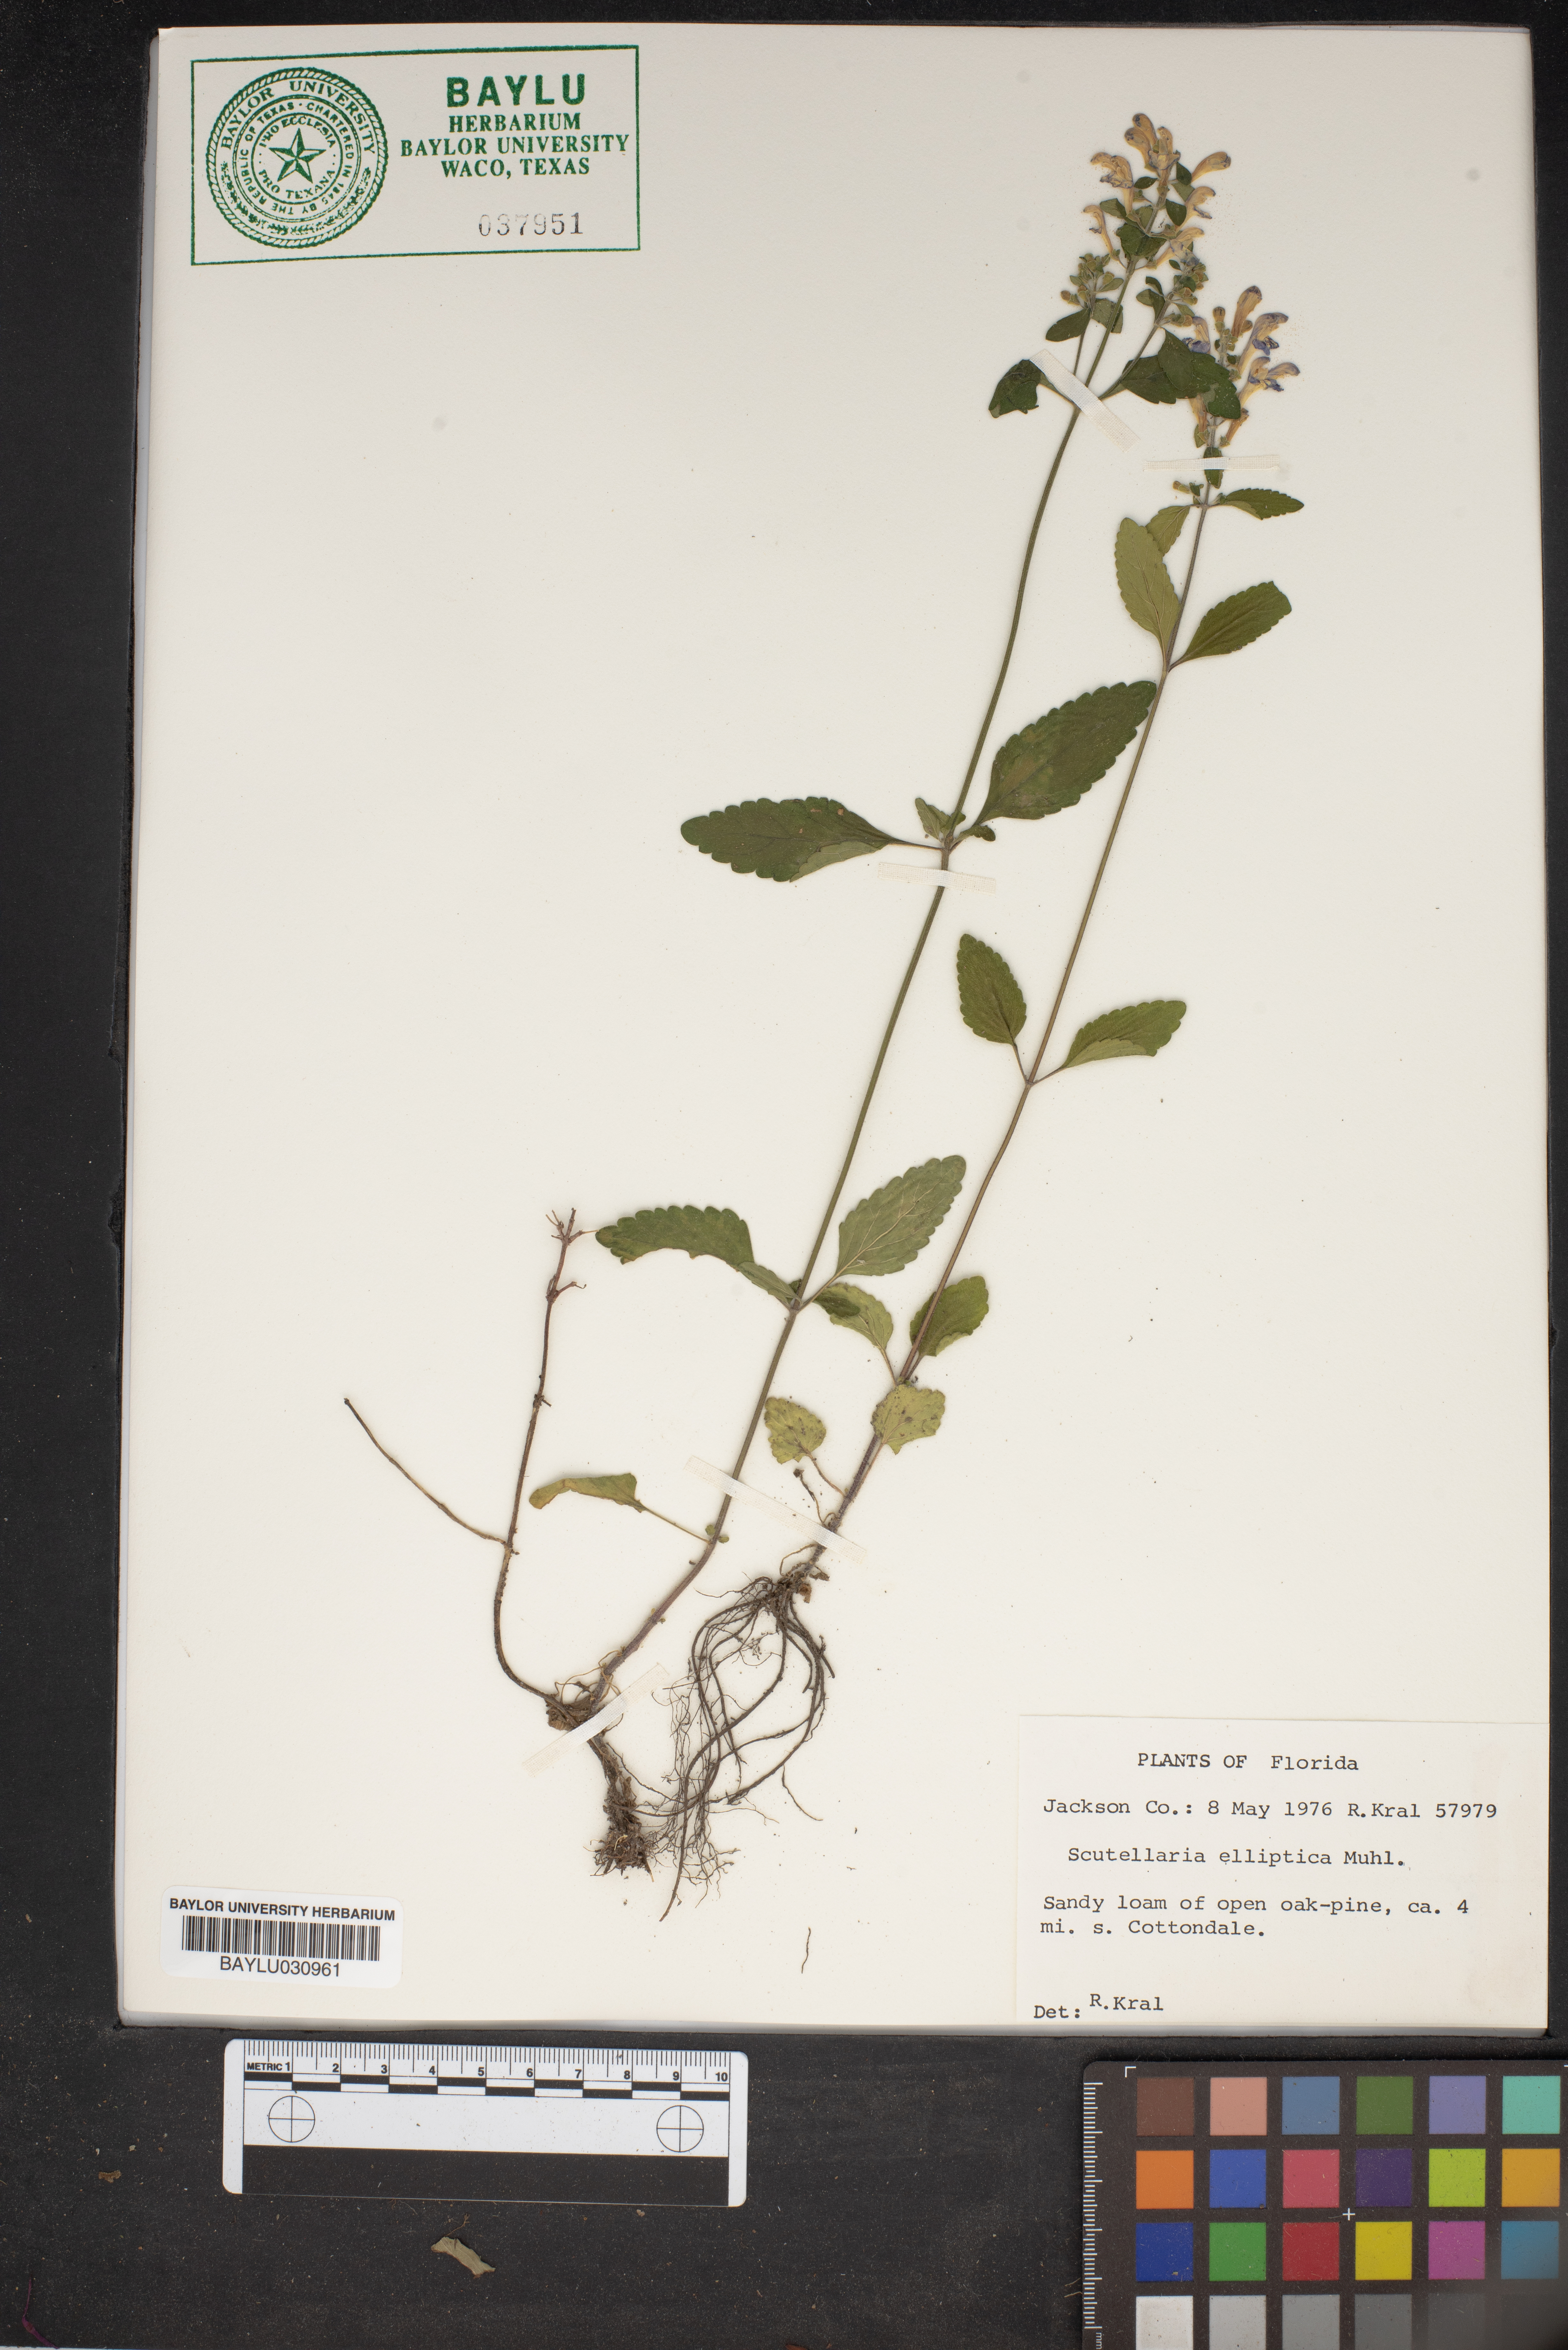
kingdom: Plantae
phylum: Tracheophyta
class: Magnoliopsida
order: Lamiales
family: Lamiaceae
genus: Scutellaria
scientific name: Scutellaria elliptica
